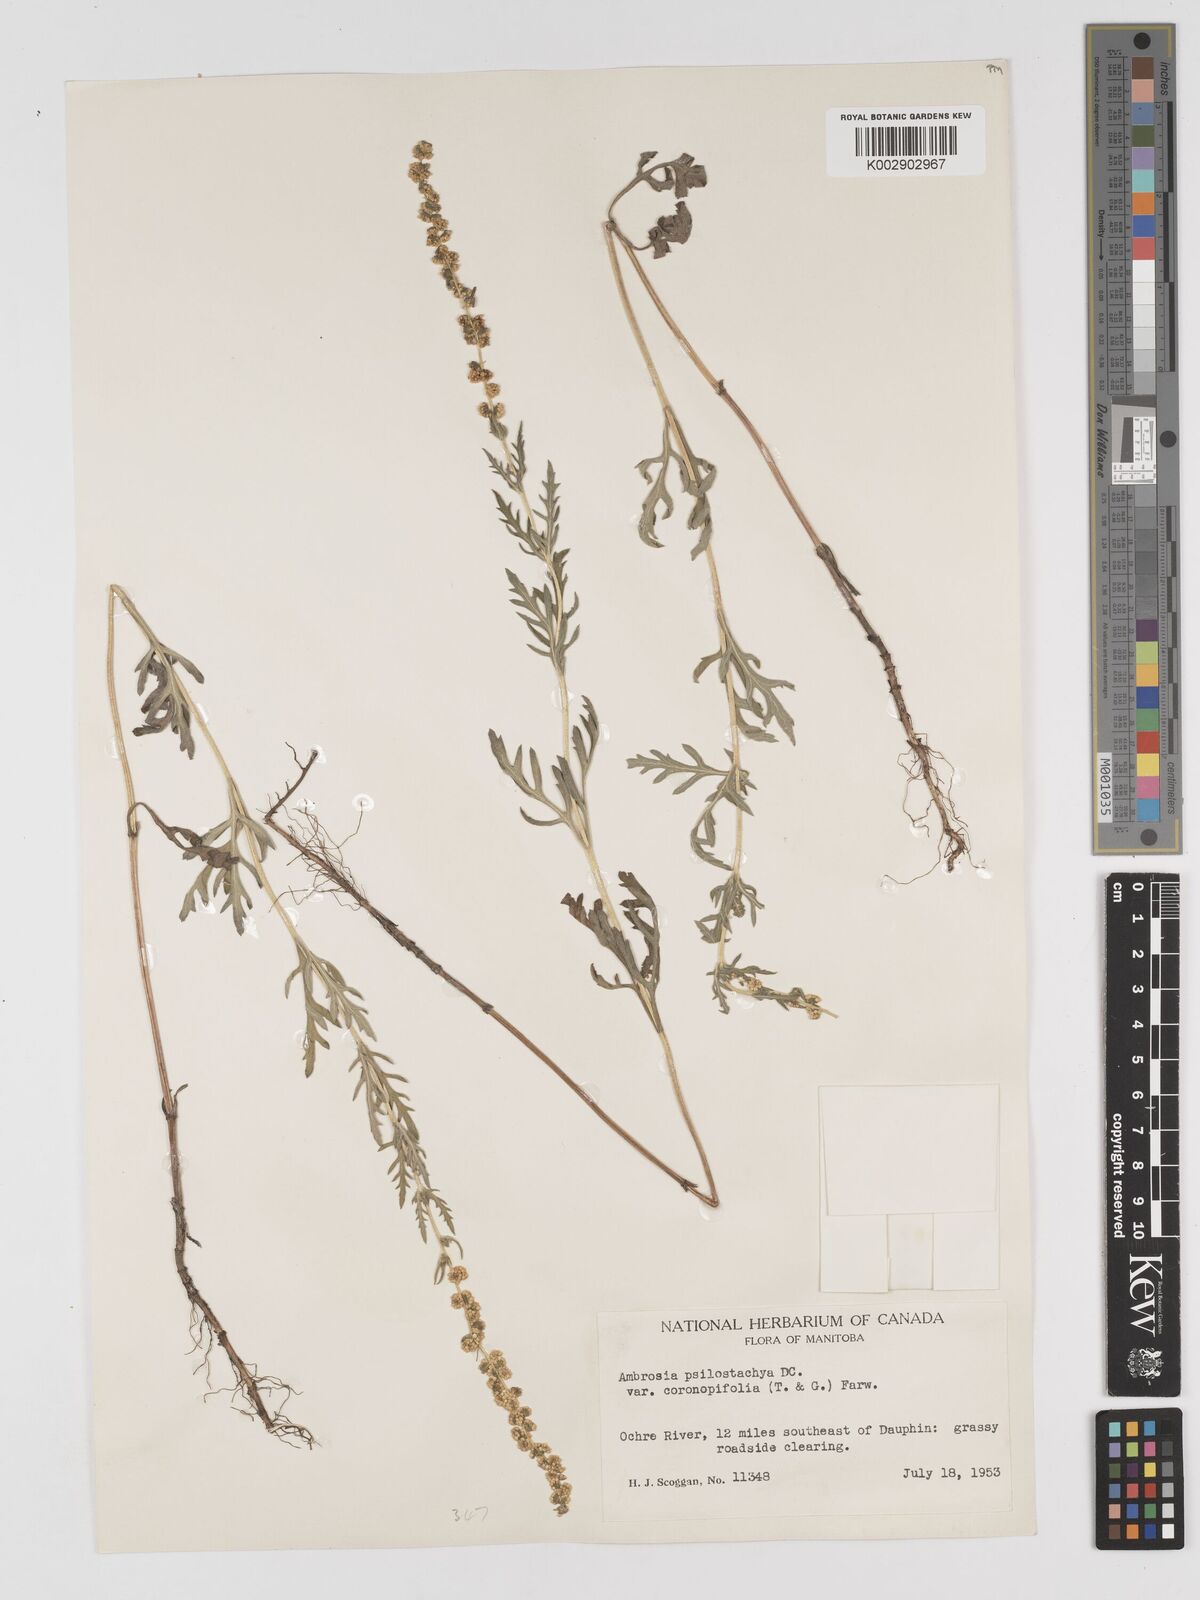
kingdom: Plantae
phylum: Tracheophyta
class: Magnoliopsida
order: Asterales
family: Asteraceae
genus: Ambrosia
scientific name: Ambrosia psilostachya
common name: Perennial ragweed
